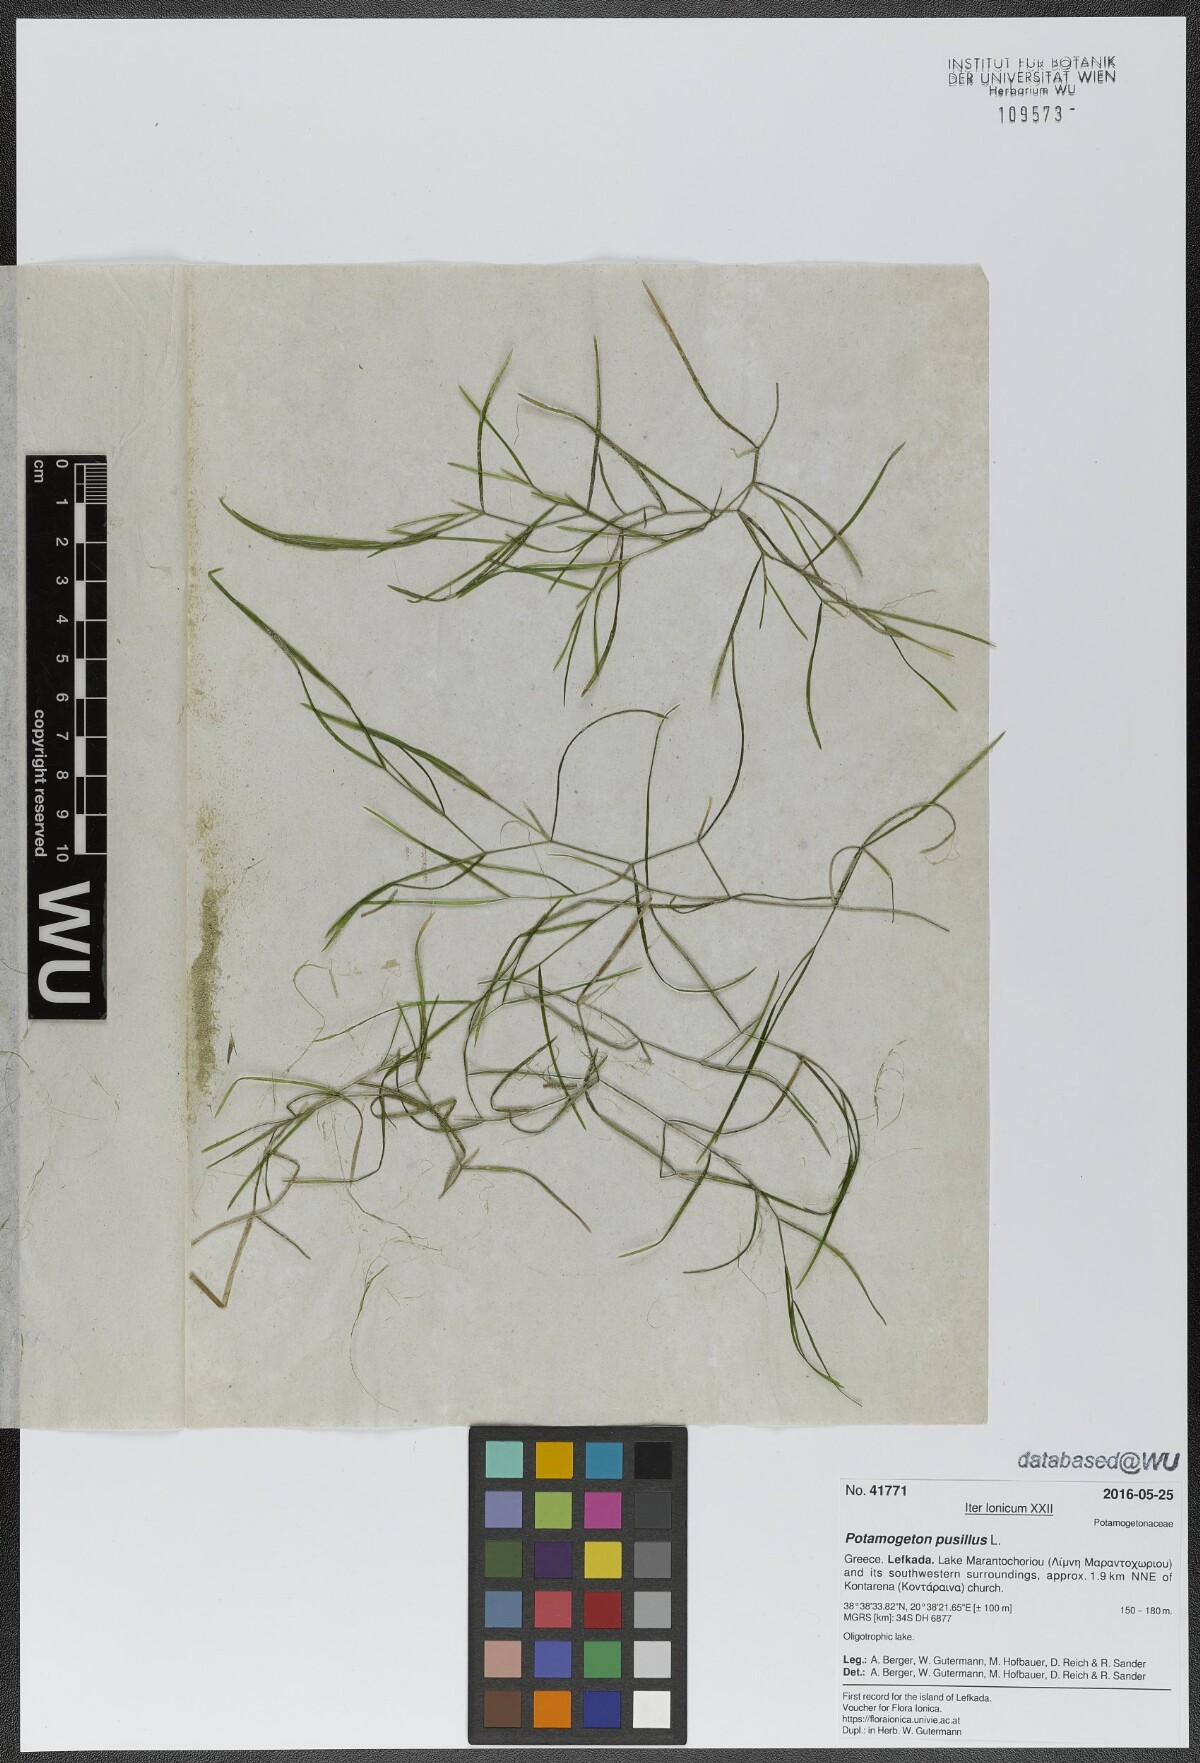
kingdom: Plantae
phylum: Tracheophyta
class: Liliopsida
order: Alismatales
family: Potamogetonaceae
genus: Potamogeton
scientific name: Potamogeton pusillus
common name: Lesser pondweed
